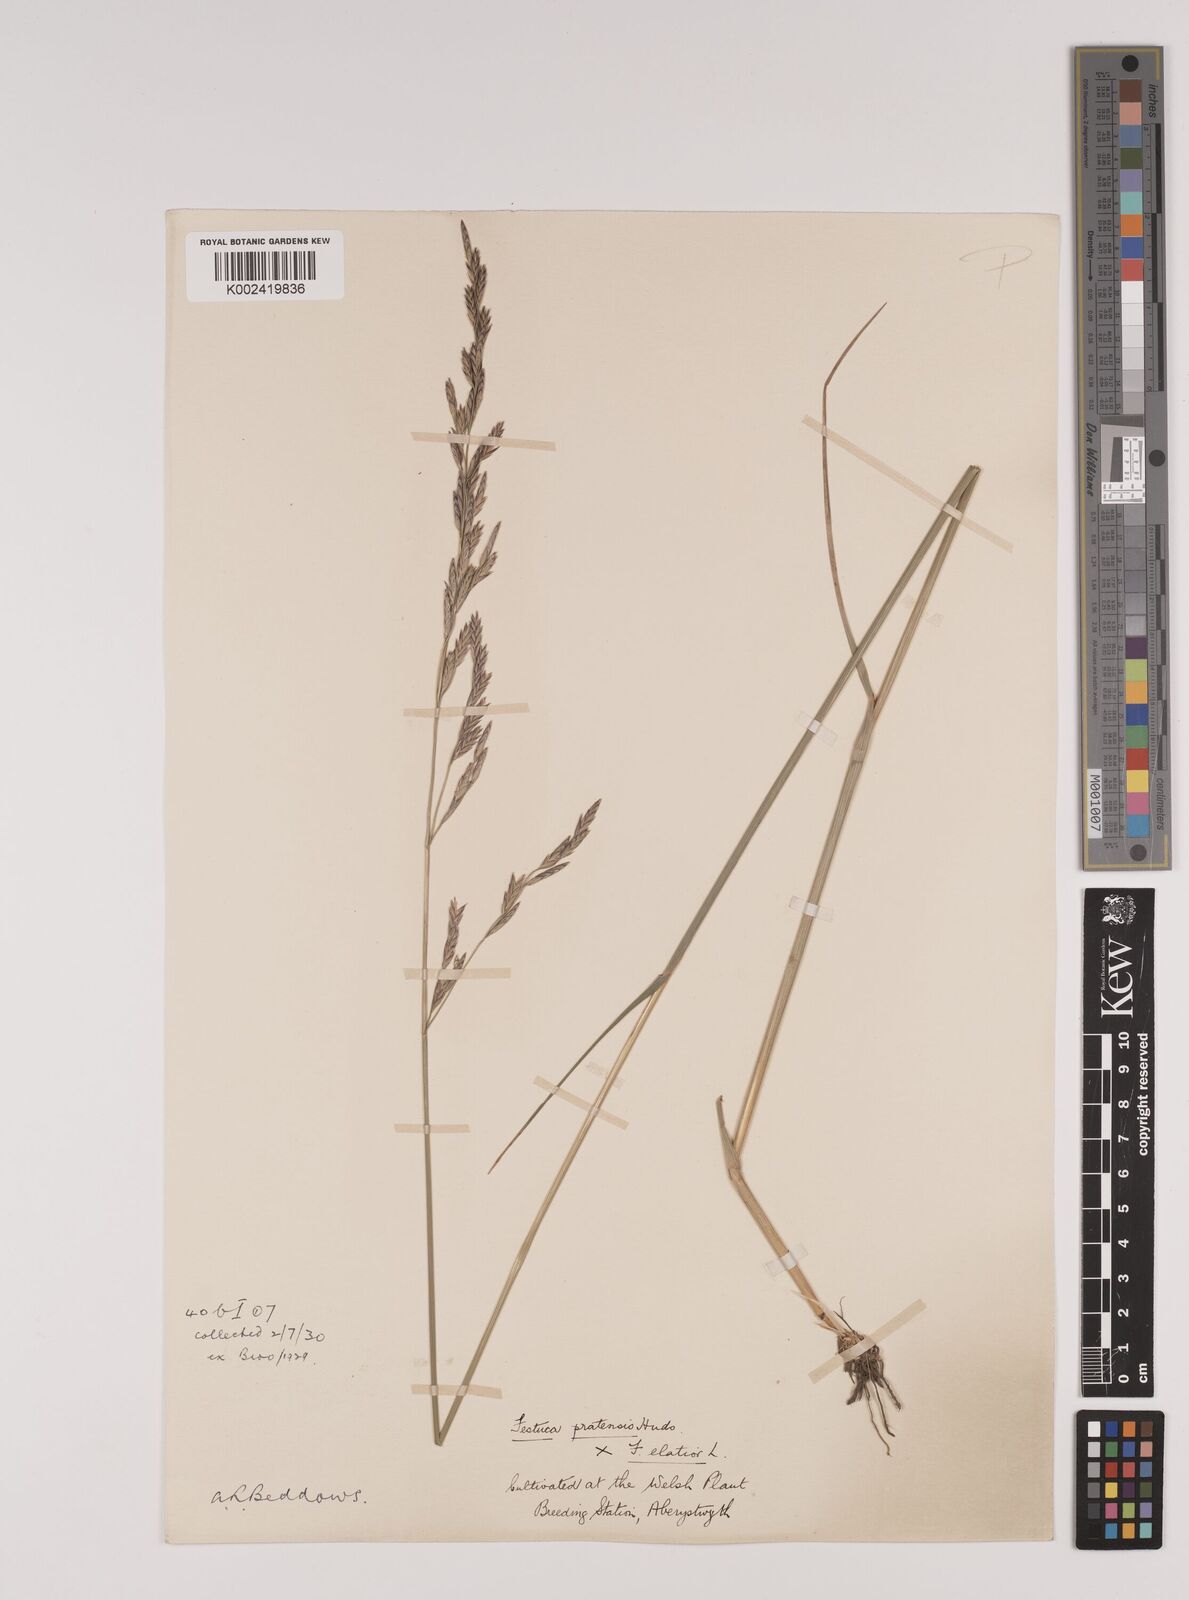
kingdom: Plantae
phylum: Tracheophyta
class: Liliopsida
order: Poales
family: Poaceae
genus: Festuca
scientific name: Festuca rubra
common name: Red fescue
